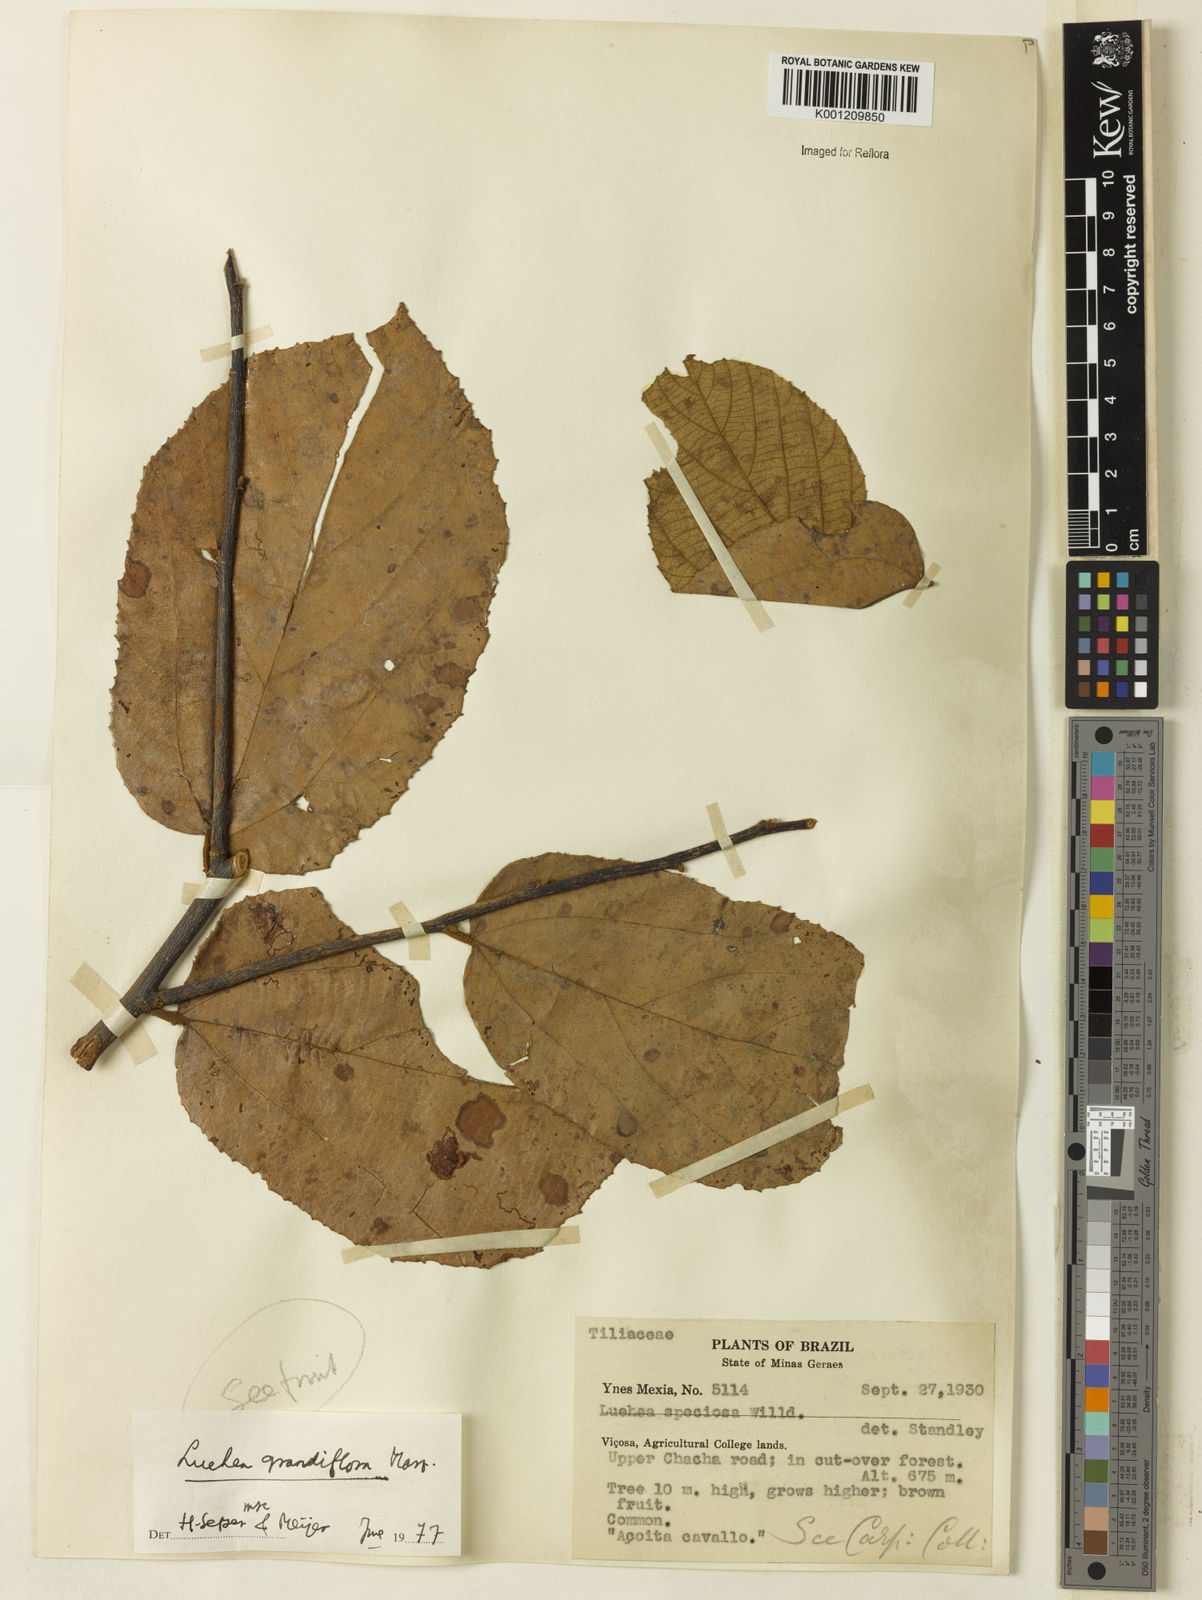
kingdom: Plantae
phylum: Tracheophyta
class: Magnoliopsida
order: Malvales
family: Malvaceae
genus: Luehea
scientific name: Luehea grandiflora
